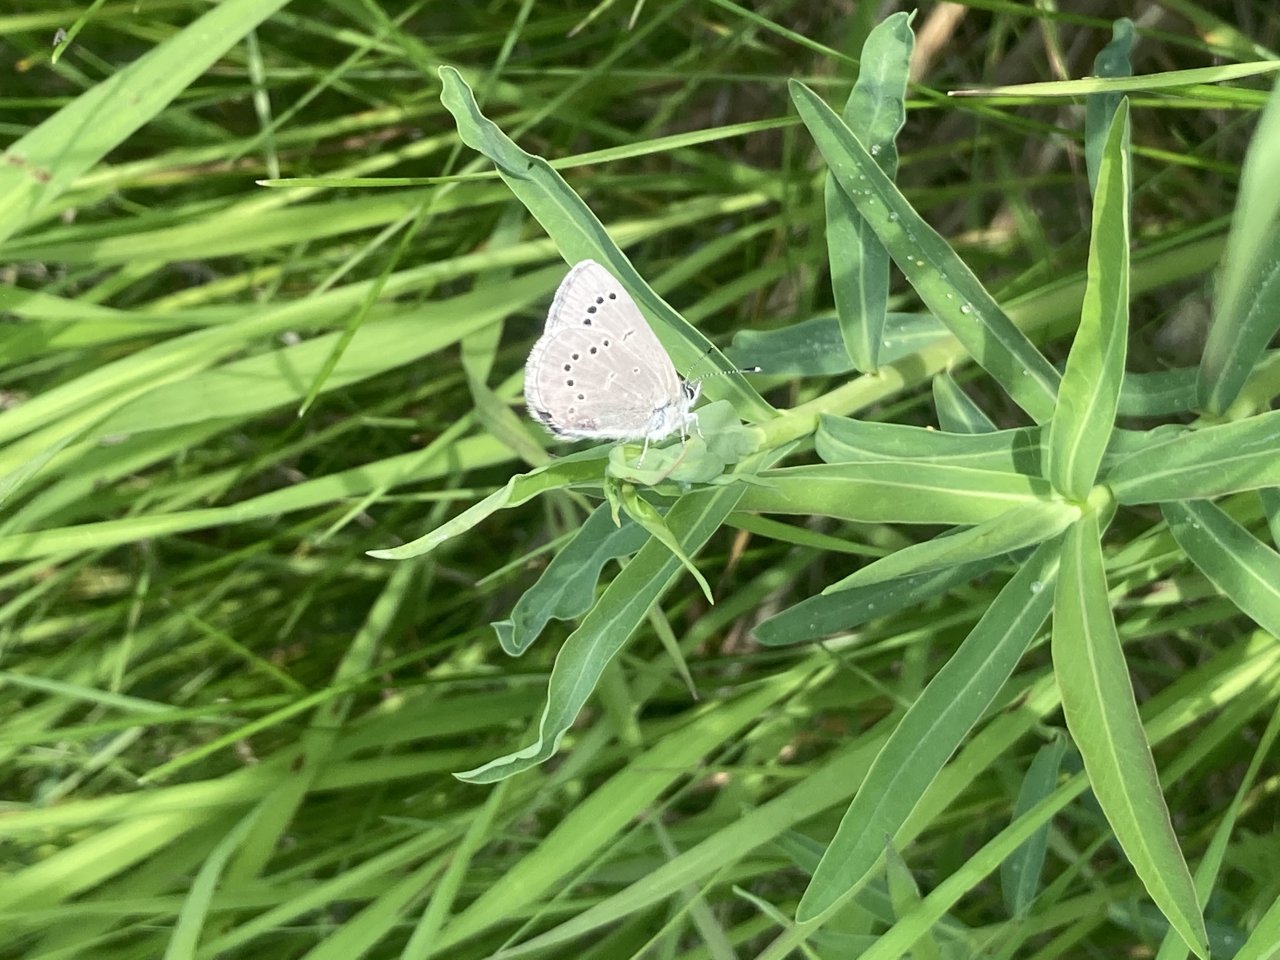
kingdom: Animalia
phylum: Arthropoda
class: Insecta
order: Lepidoptera
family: Lycaenidae
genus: Glaucopsyche
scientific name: Glaucopsyche lygdamus
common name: Silvery Blue
